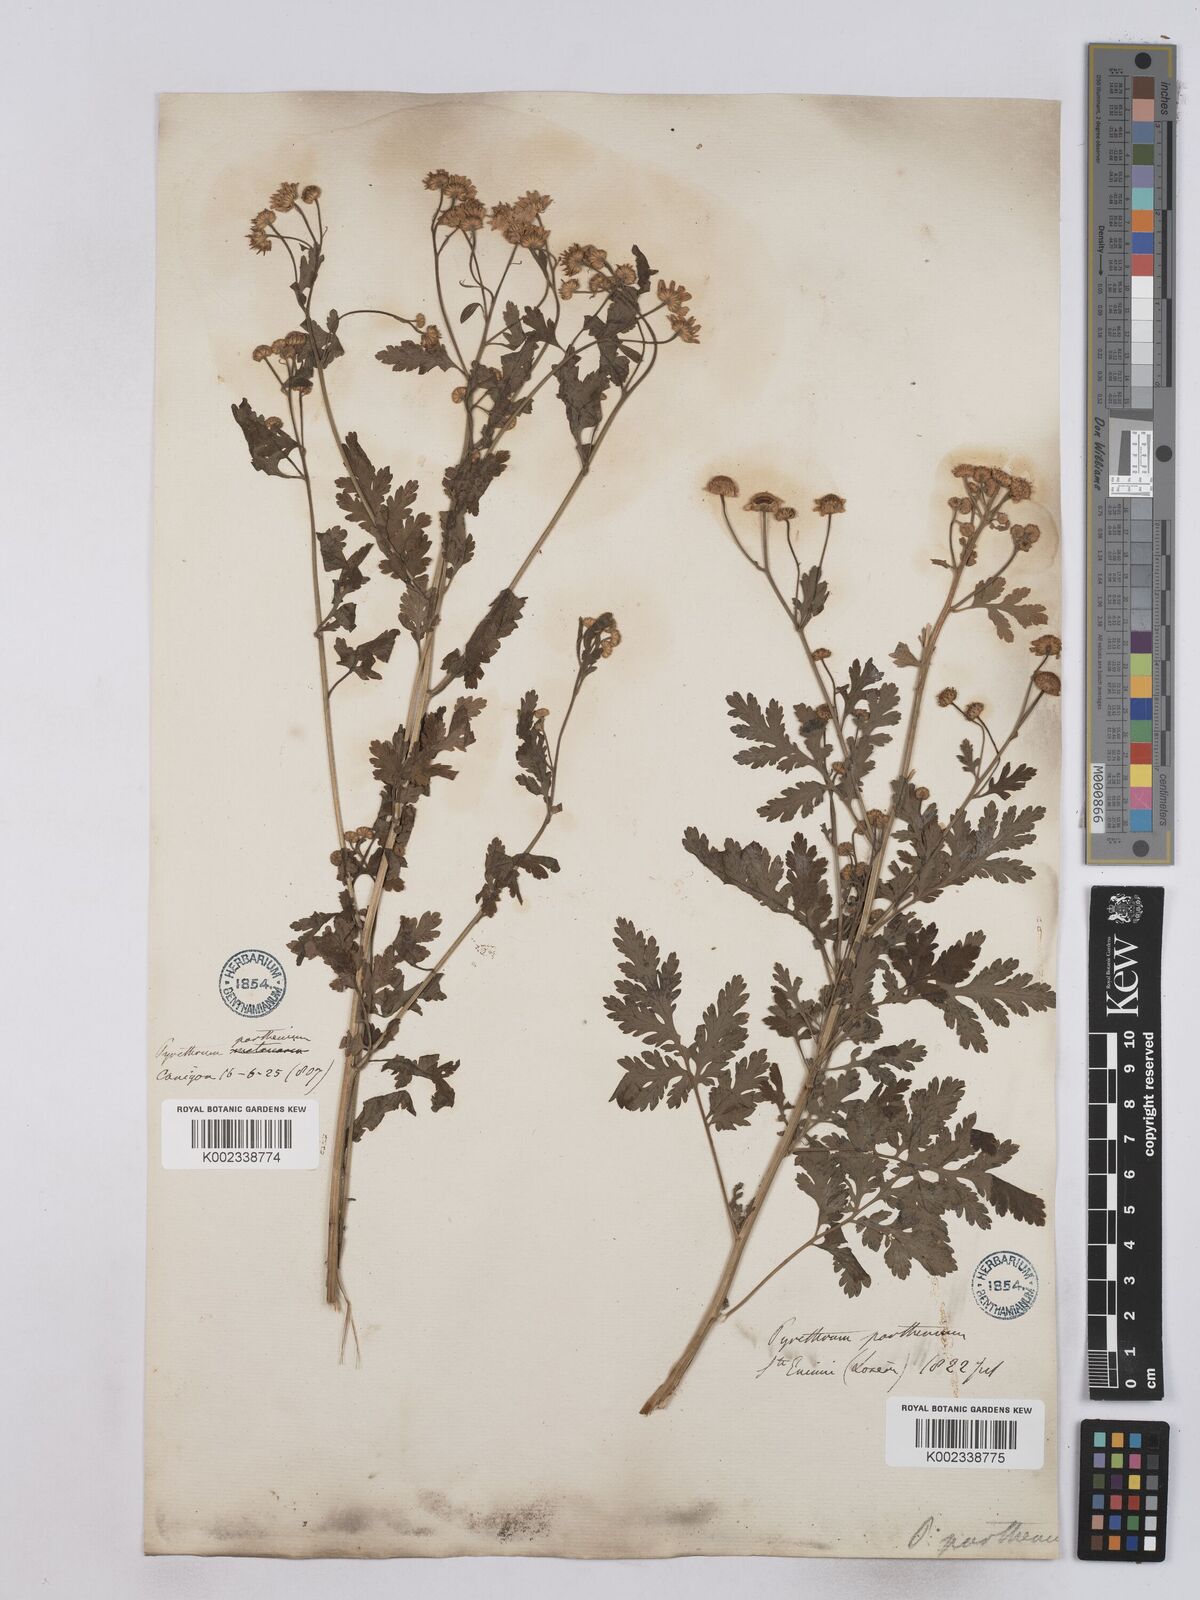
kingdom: Plantae
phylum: Tracheophyta
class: Magnoliopsida
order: Asterales
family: Asteraceae
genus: Tanacetum
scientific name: Tanacetum parthenium
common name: Feverfew
